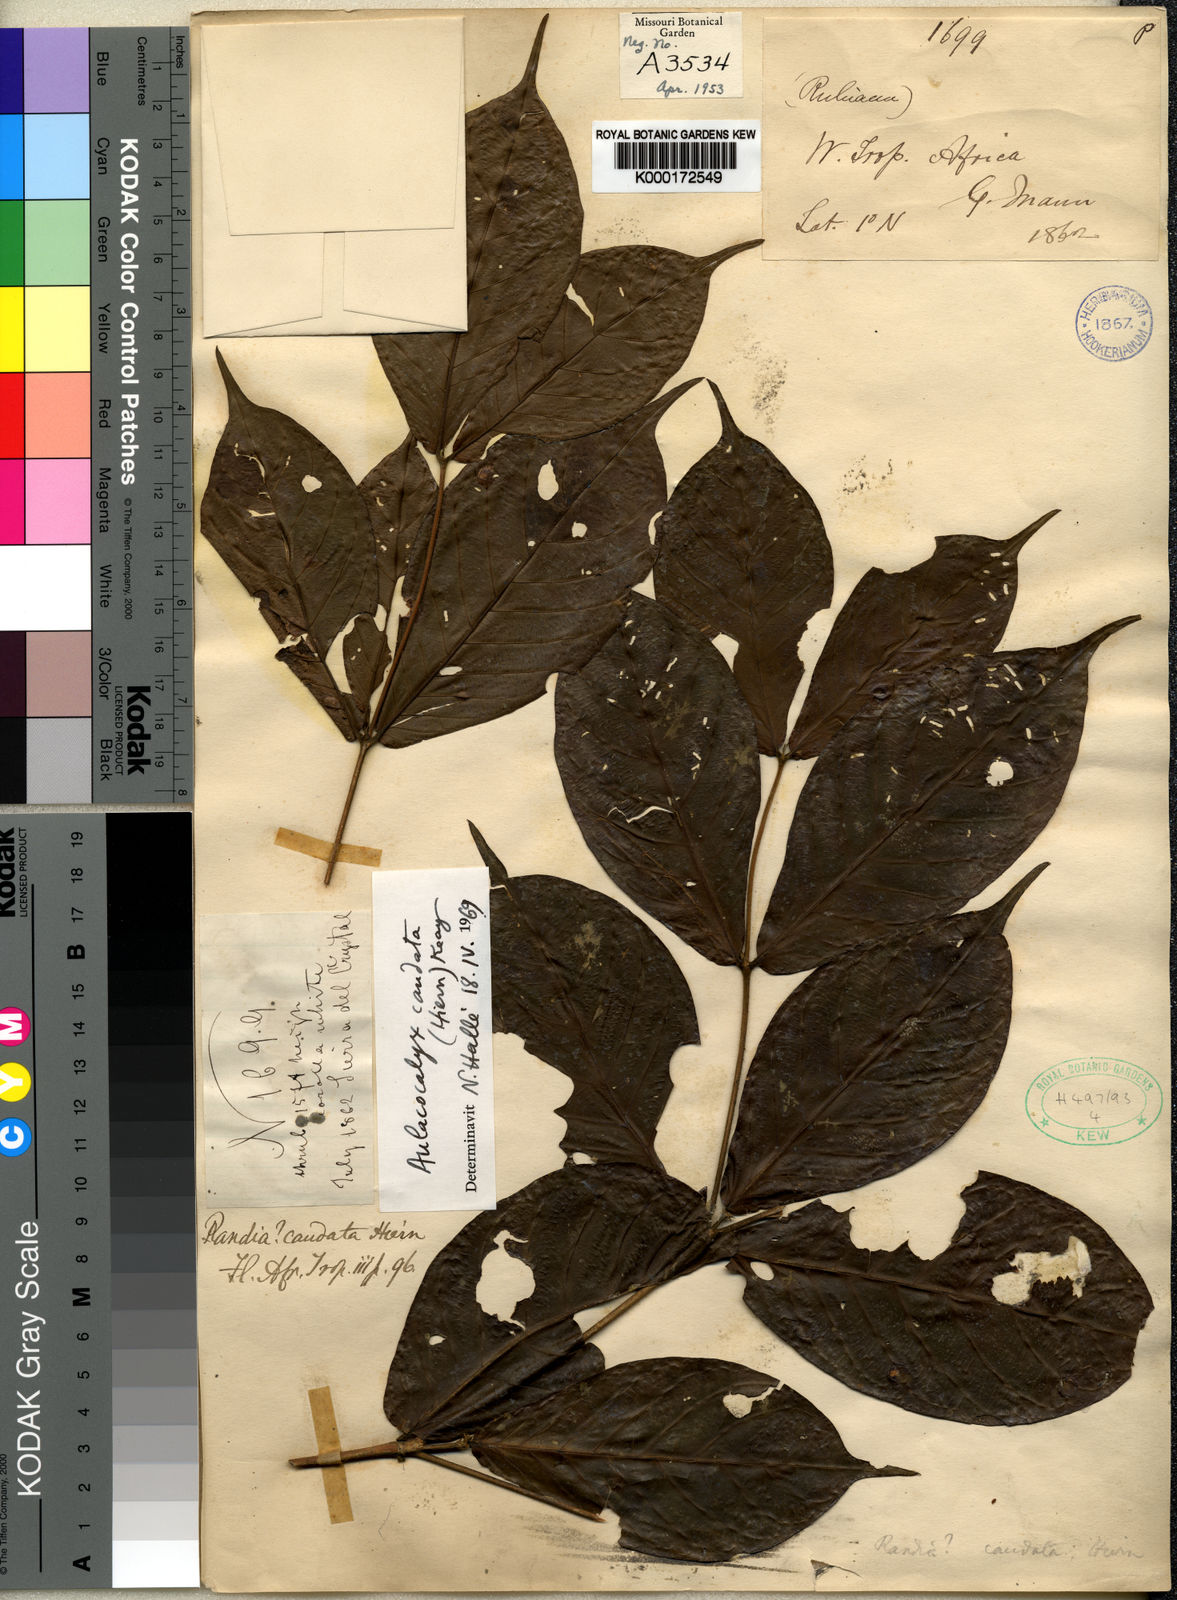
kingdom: Plantae
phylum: Tracheophyta
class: Magnoliopsida
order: Gentianales
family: Rubiaceae
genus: Aulacocalyx
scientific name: Aulacocalyx caudata
